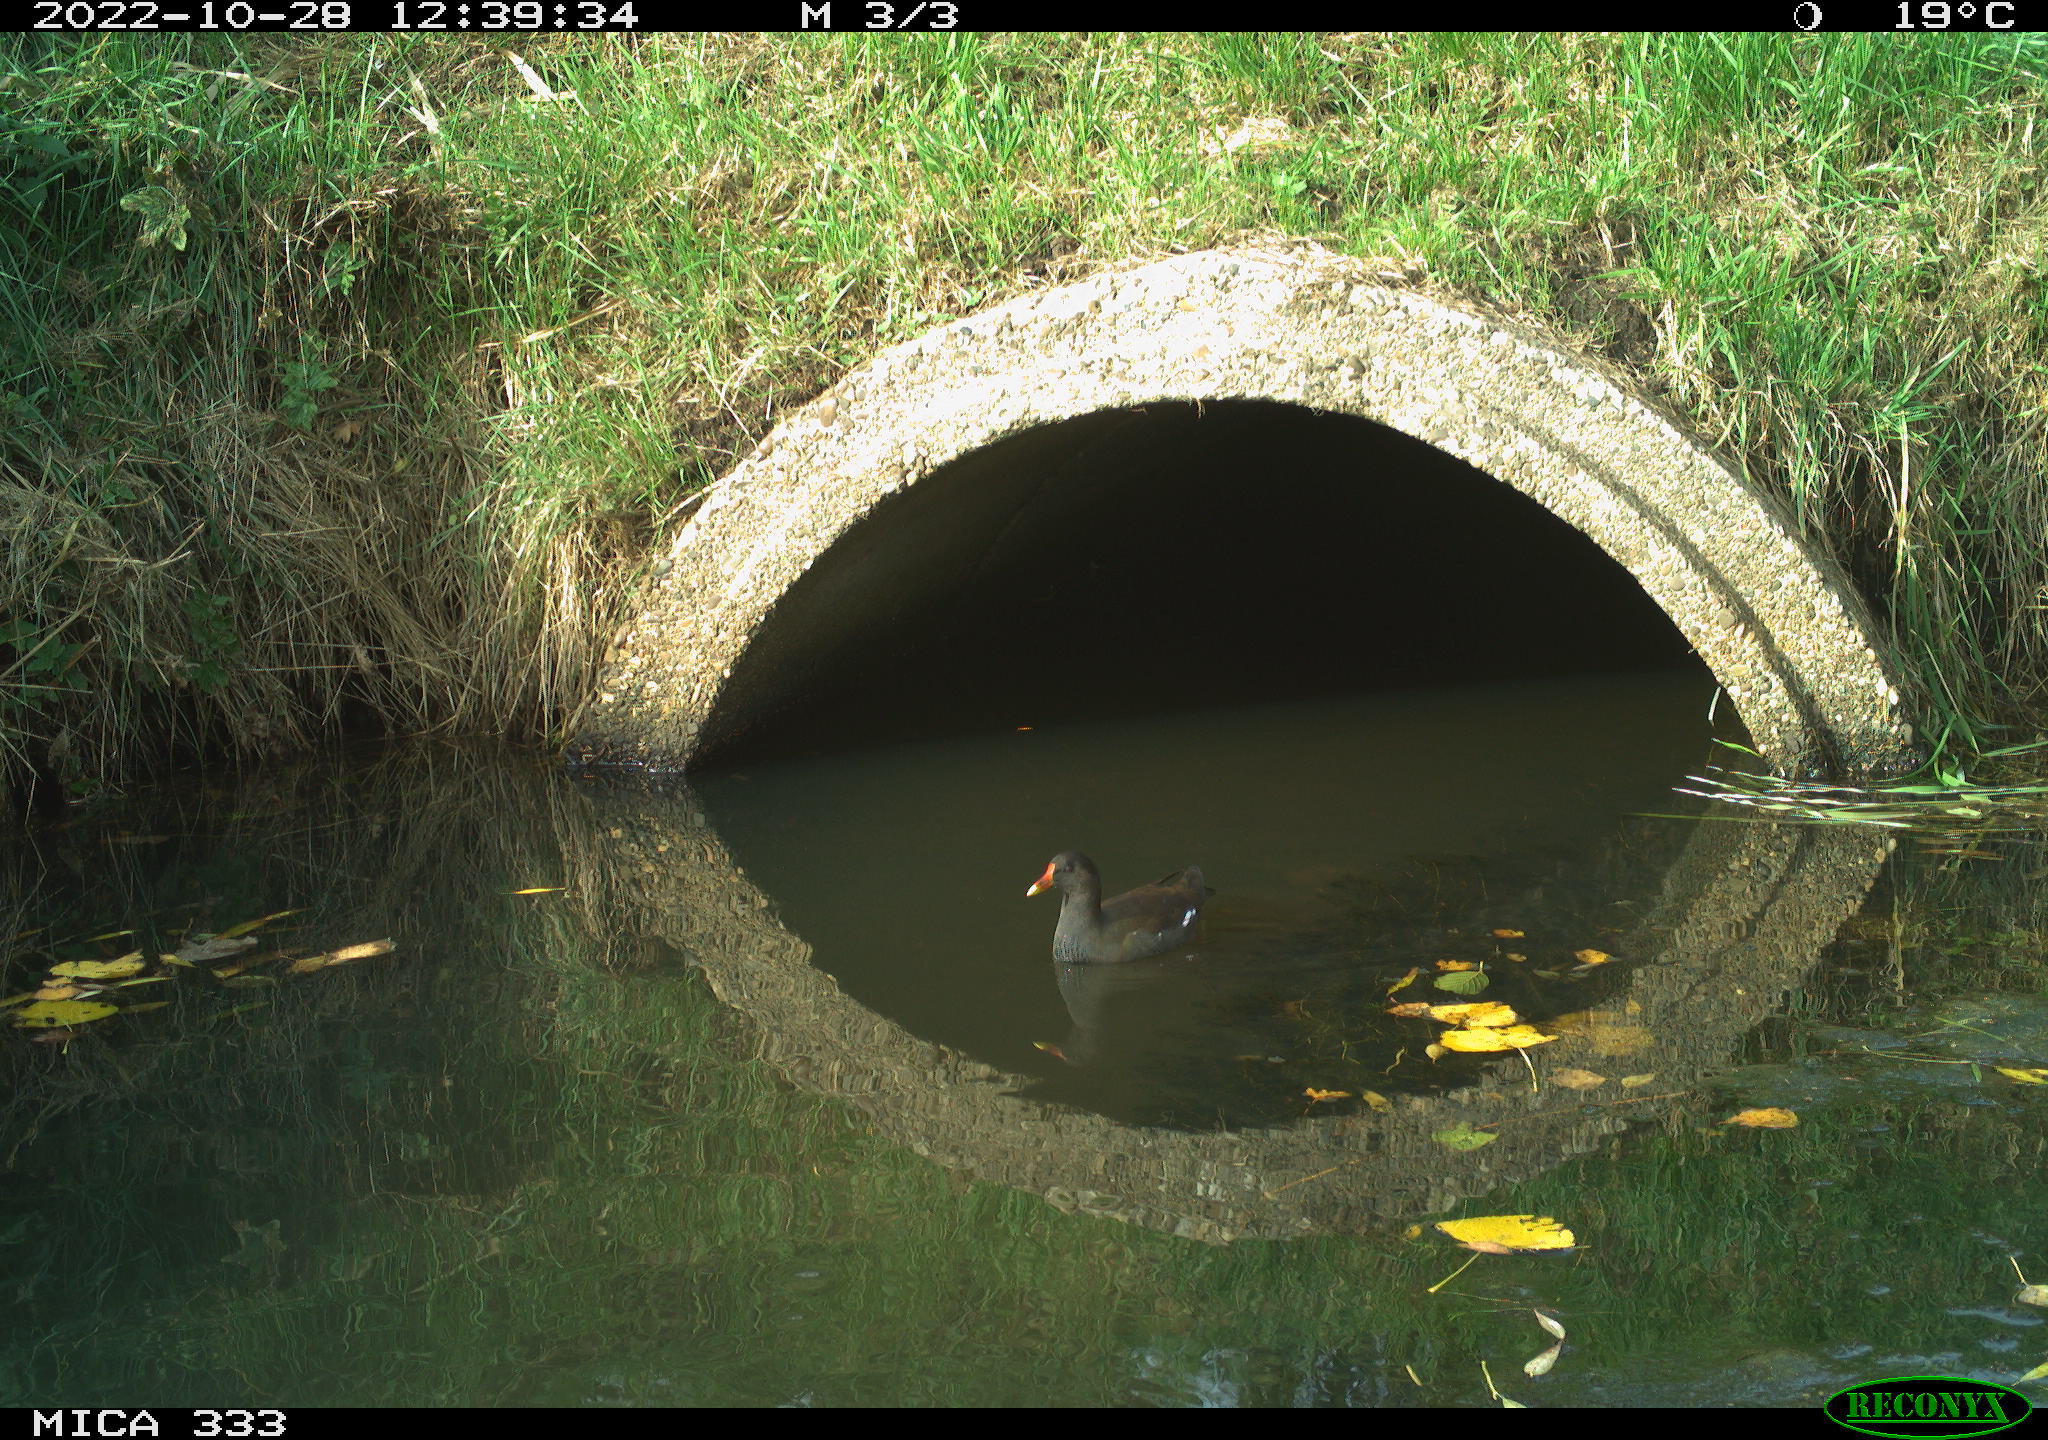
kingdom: Animalia
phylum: Chordata
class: Aves
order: Gruiformes
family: Rallidae
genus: Gallinula
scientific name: Gallinula chloropus
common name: Common moorhen
